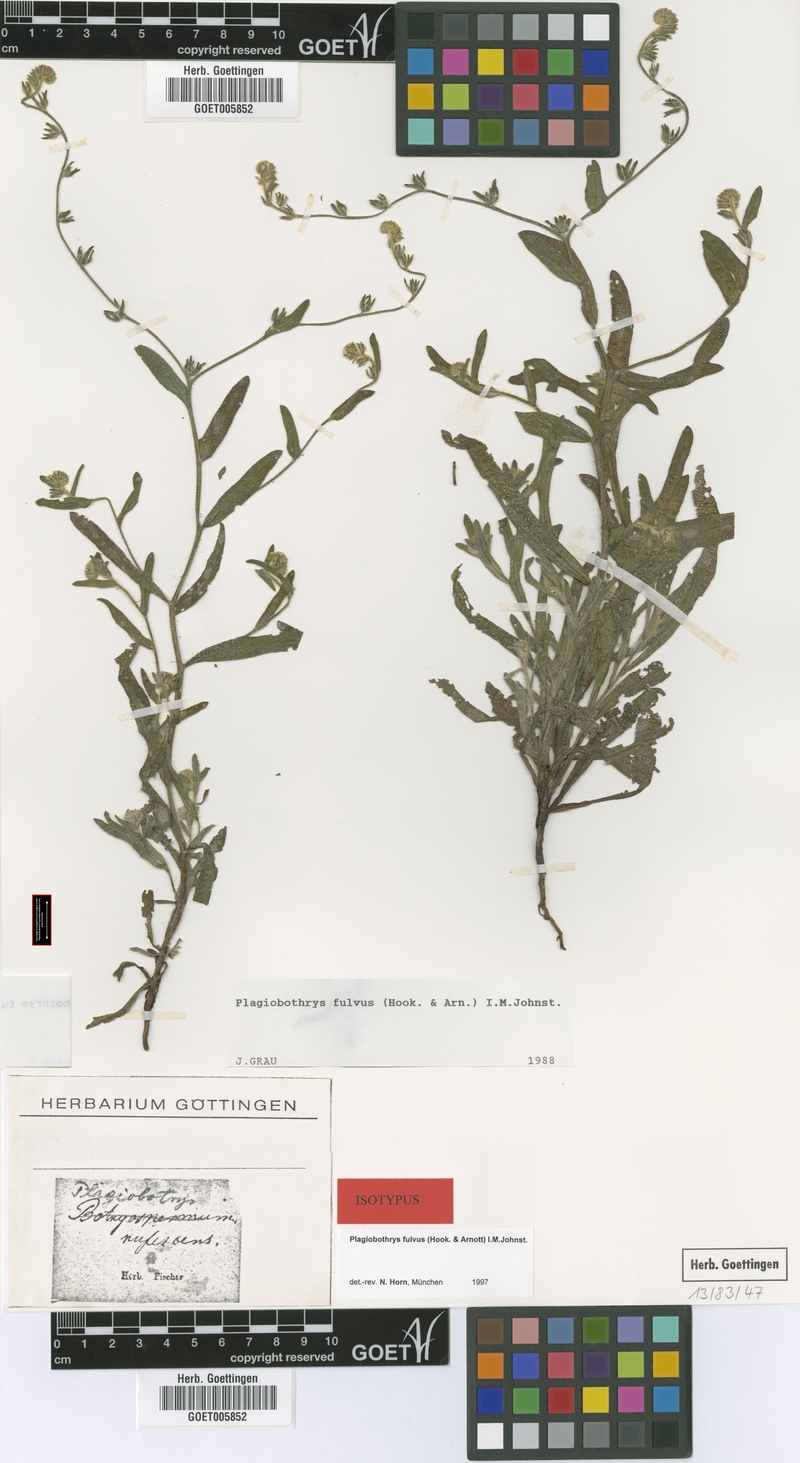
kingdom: Plantae
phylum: Tracheophyta
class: Magnoliopsida
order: Boraginales
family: Boraginaceae
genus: Plagiobothrys
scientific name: Plagiobothrys fulvus
